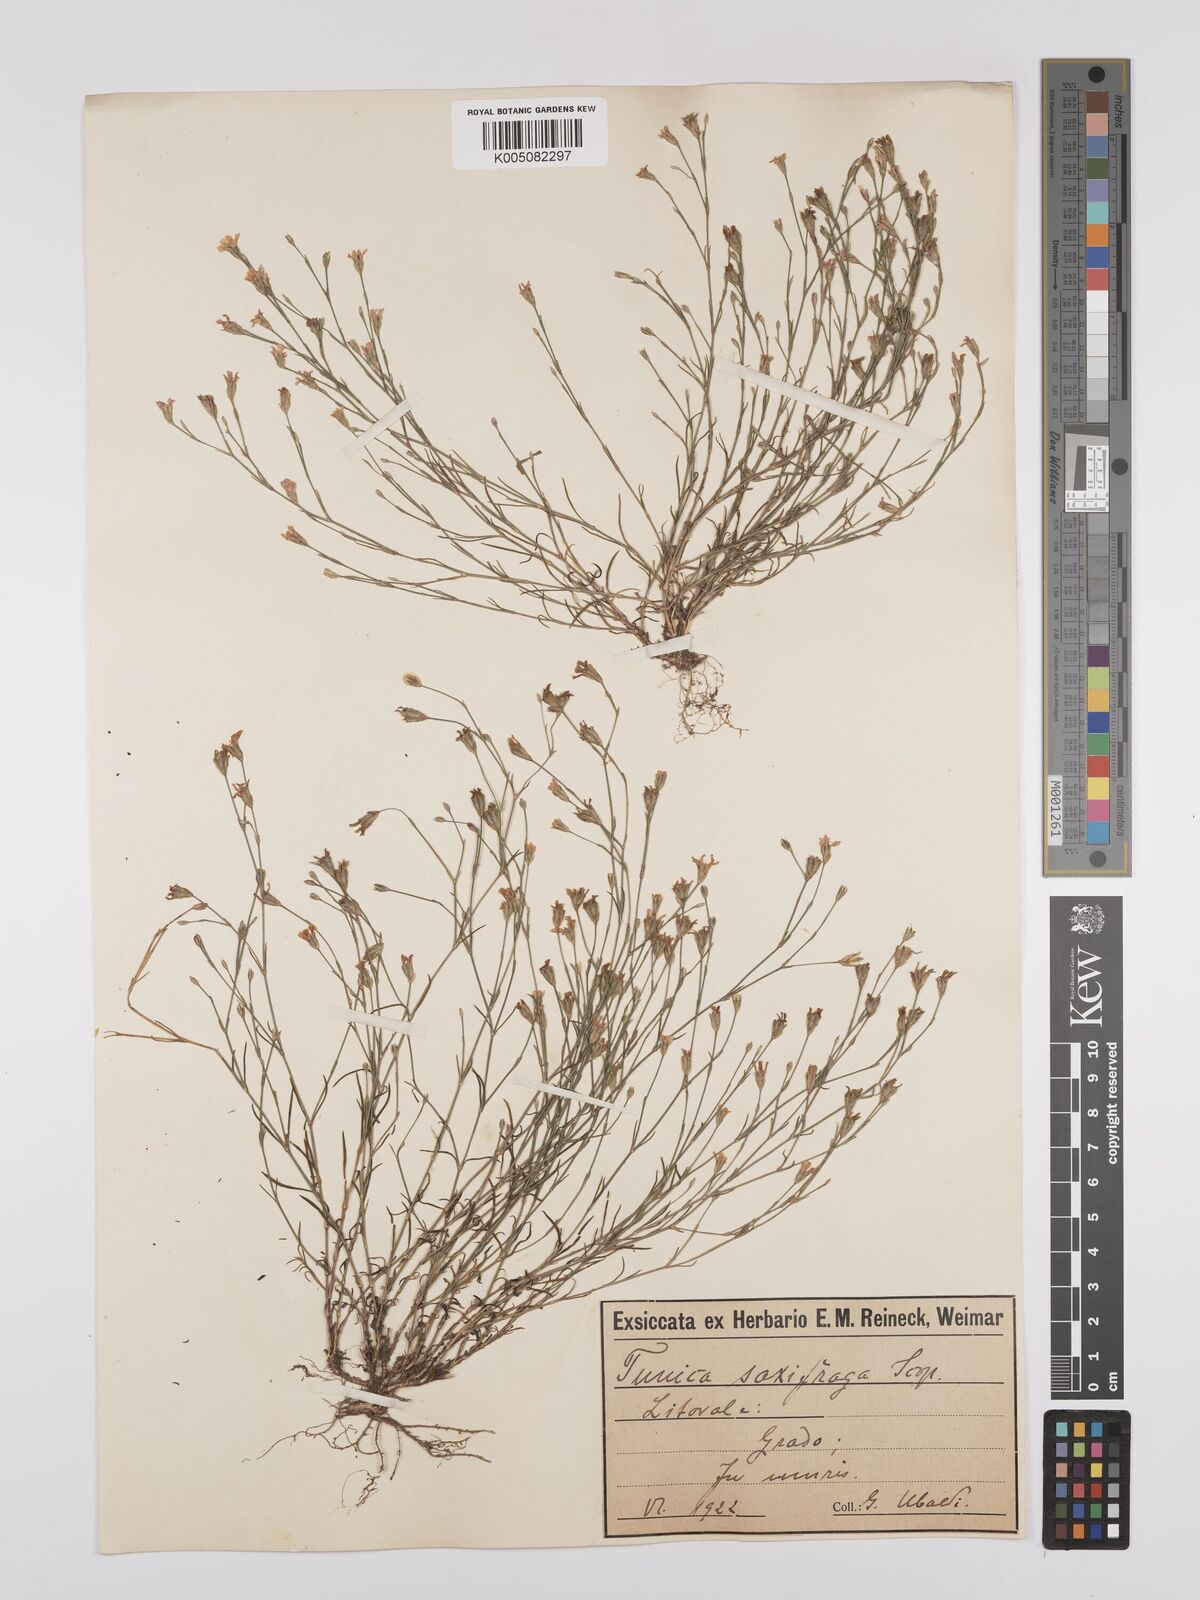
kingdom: Plantae
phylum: Tracheophyta
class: Magnoliopsida
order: Caryophyllales
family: Caryophyllaceae
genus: Petrorhagia
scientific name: Petrorhagia saxifraga
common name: Tunicflower
